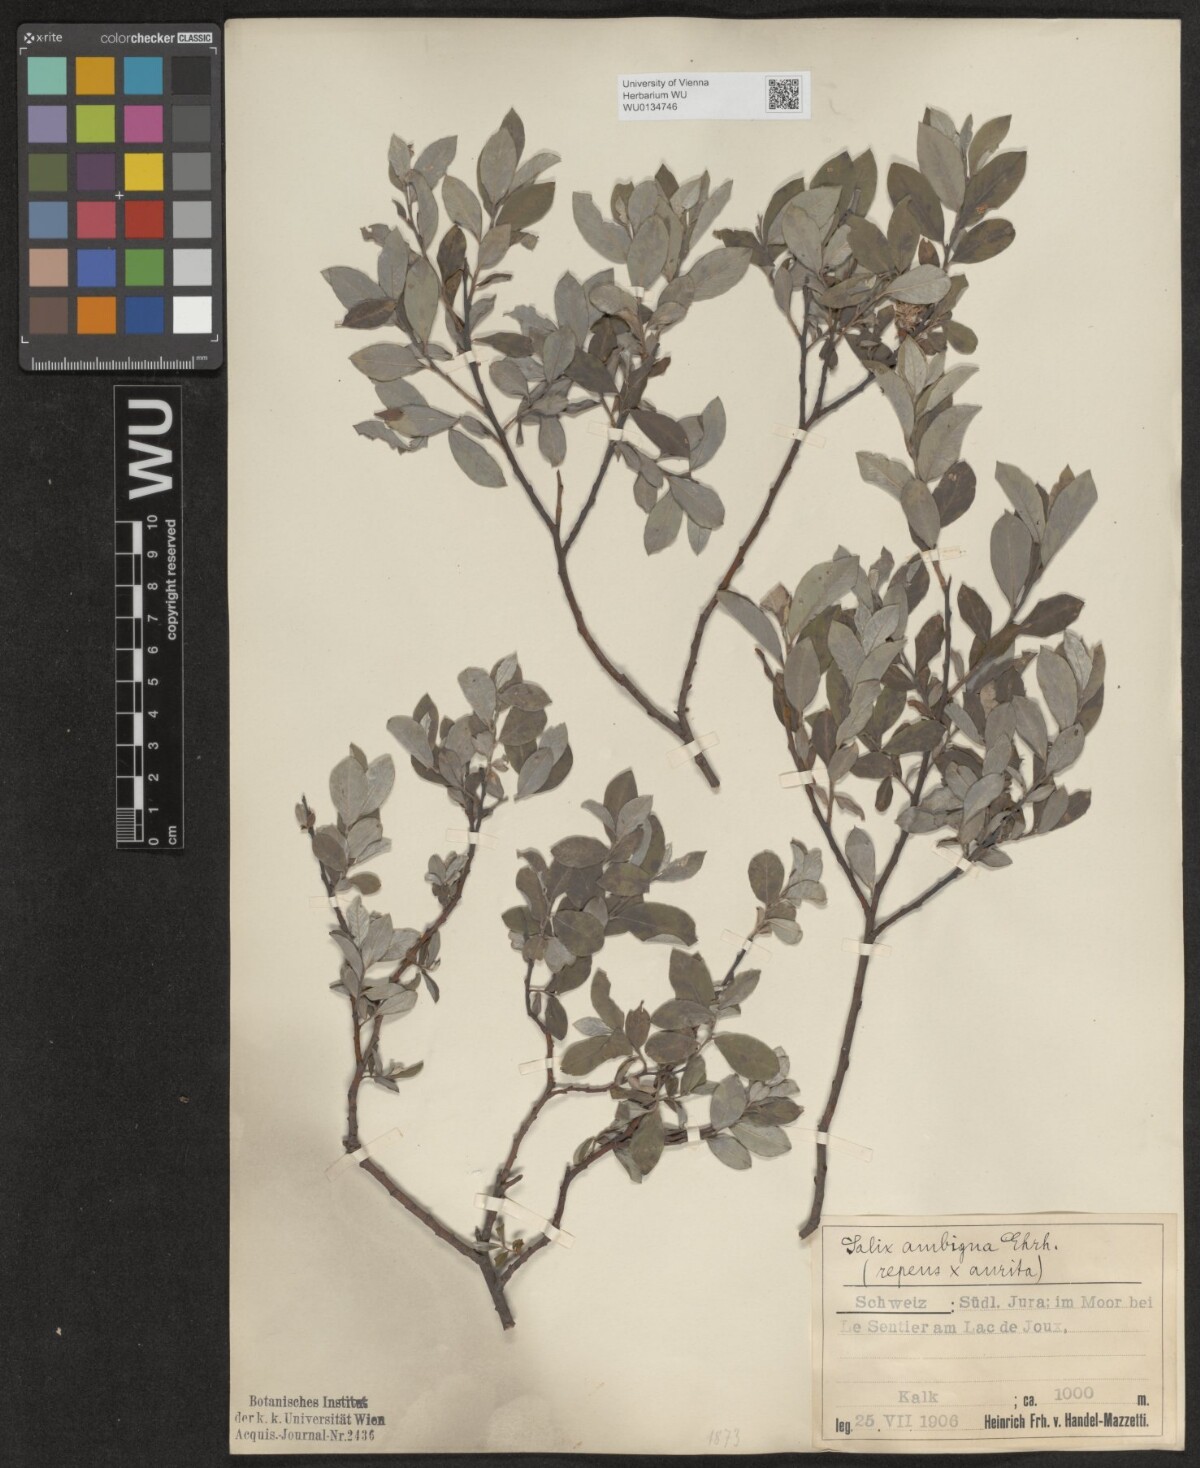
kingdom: Plantae
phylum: Tracheophyta
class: Magnoliopsida
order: Malpighiales
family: Salicaceae
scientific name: Salicaceae
